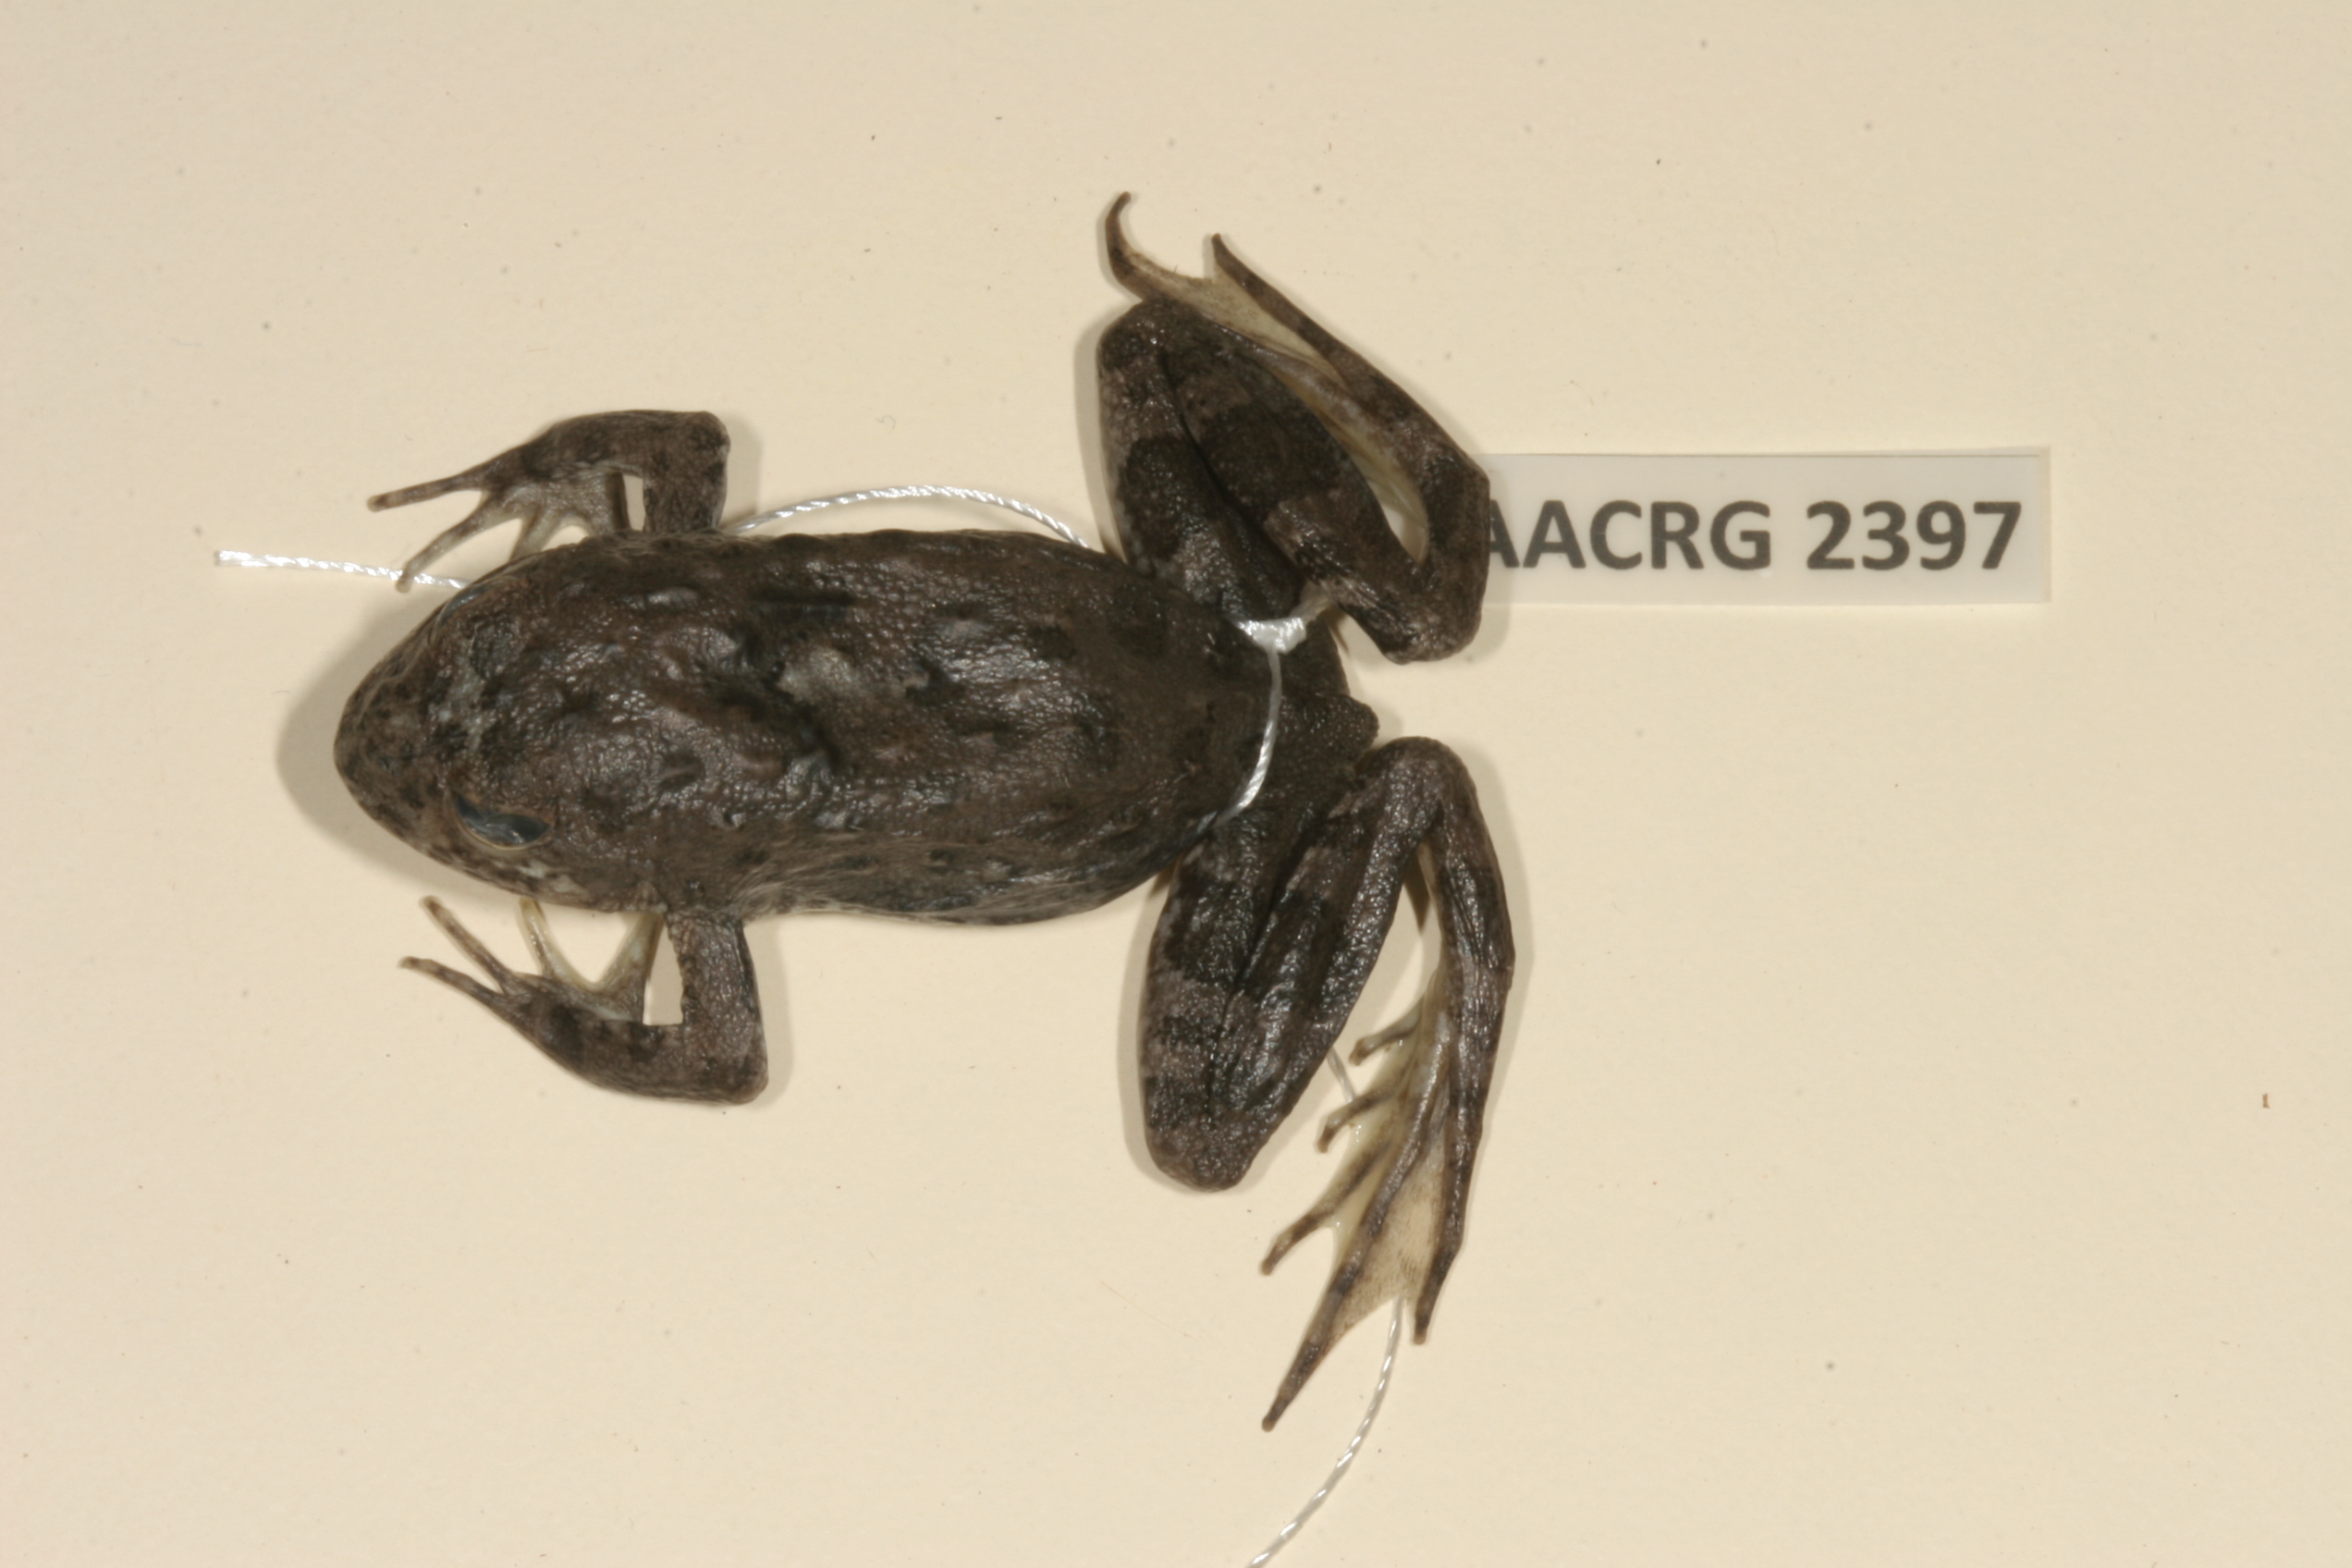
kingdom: Animalia
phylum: Chordata
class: Amphibia
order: Anura
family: Pyxicephalidae
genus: Amietia
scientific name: Amietia vertebralis
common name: Drakensberg stream frog
